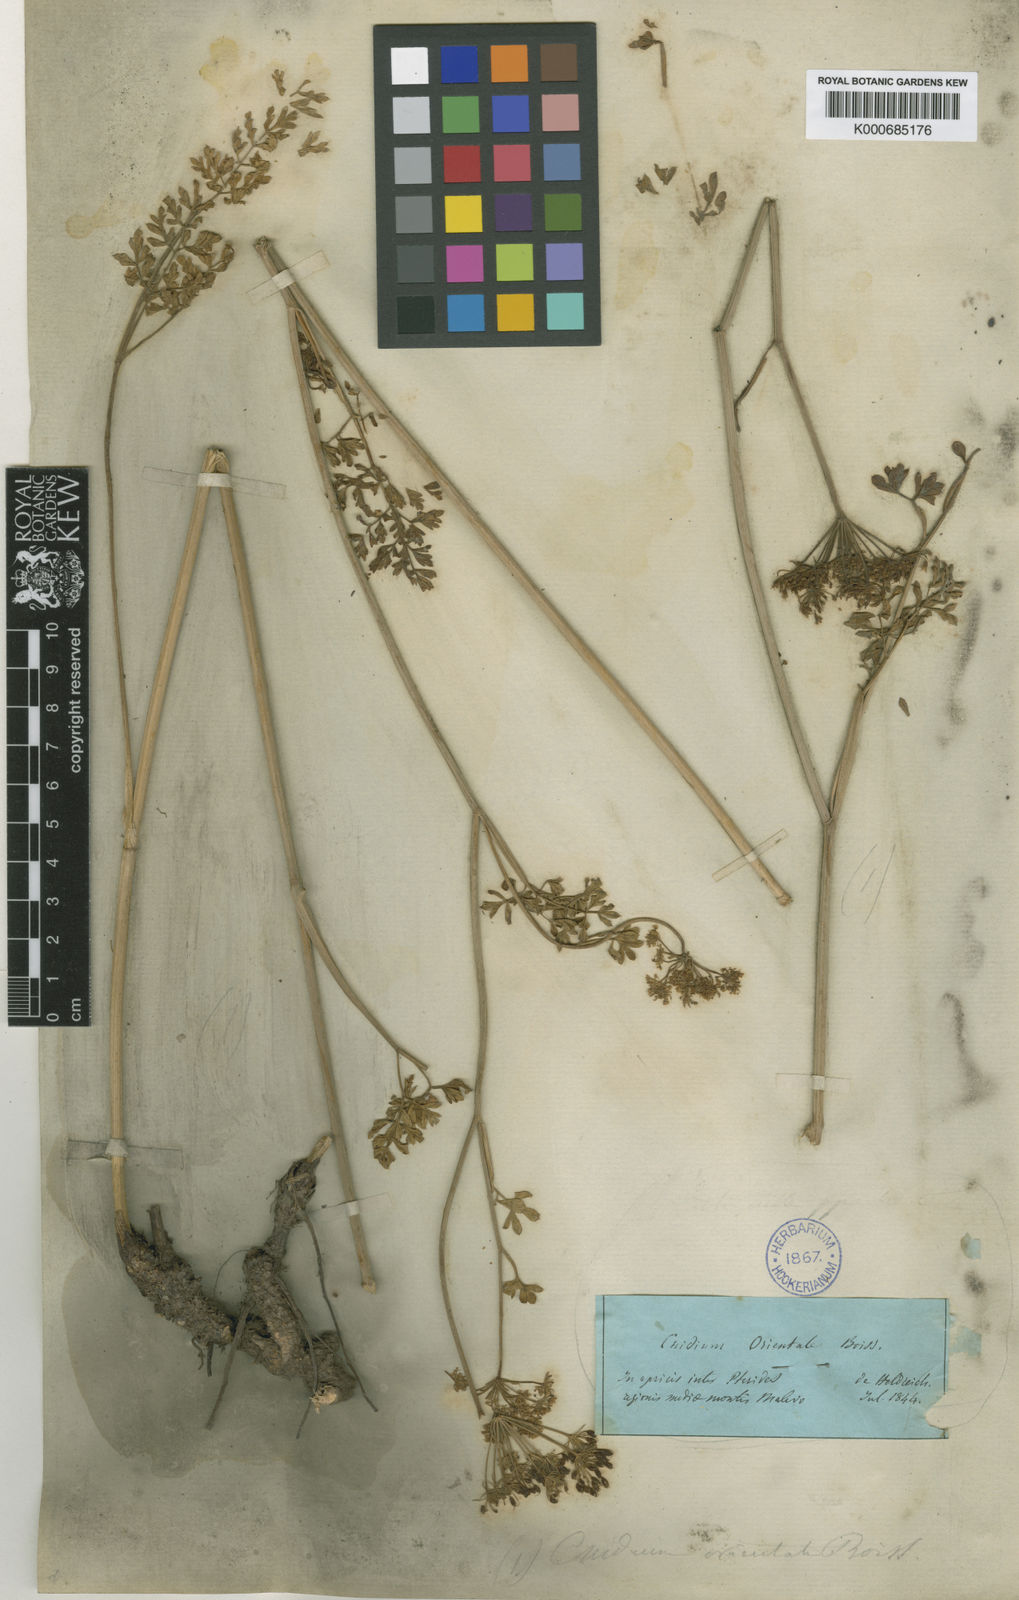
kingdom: Plantae
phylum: Tracheophyta
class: Magnoliopsida
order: Apiales
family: Apiaceae
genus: Katapsuxis
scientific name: Katapsuxis silaifolia
